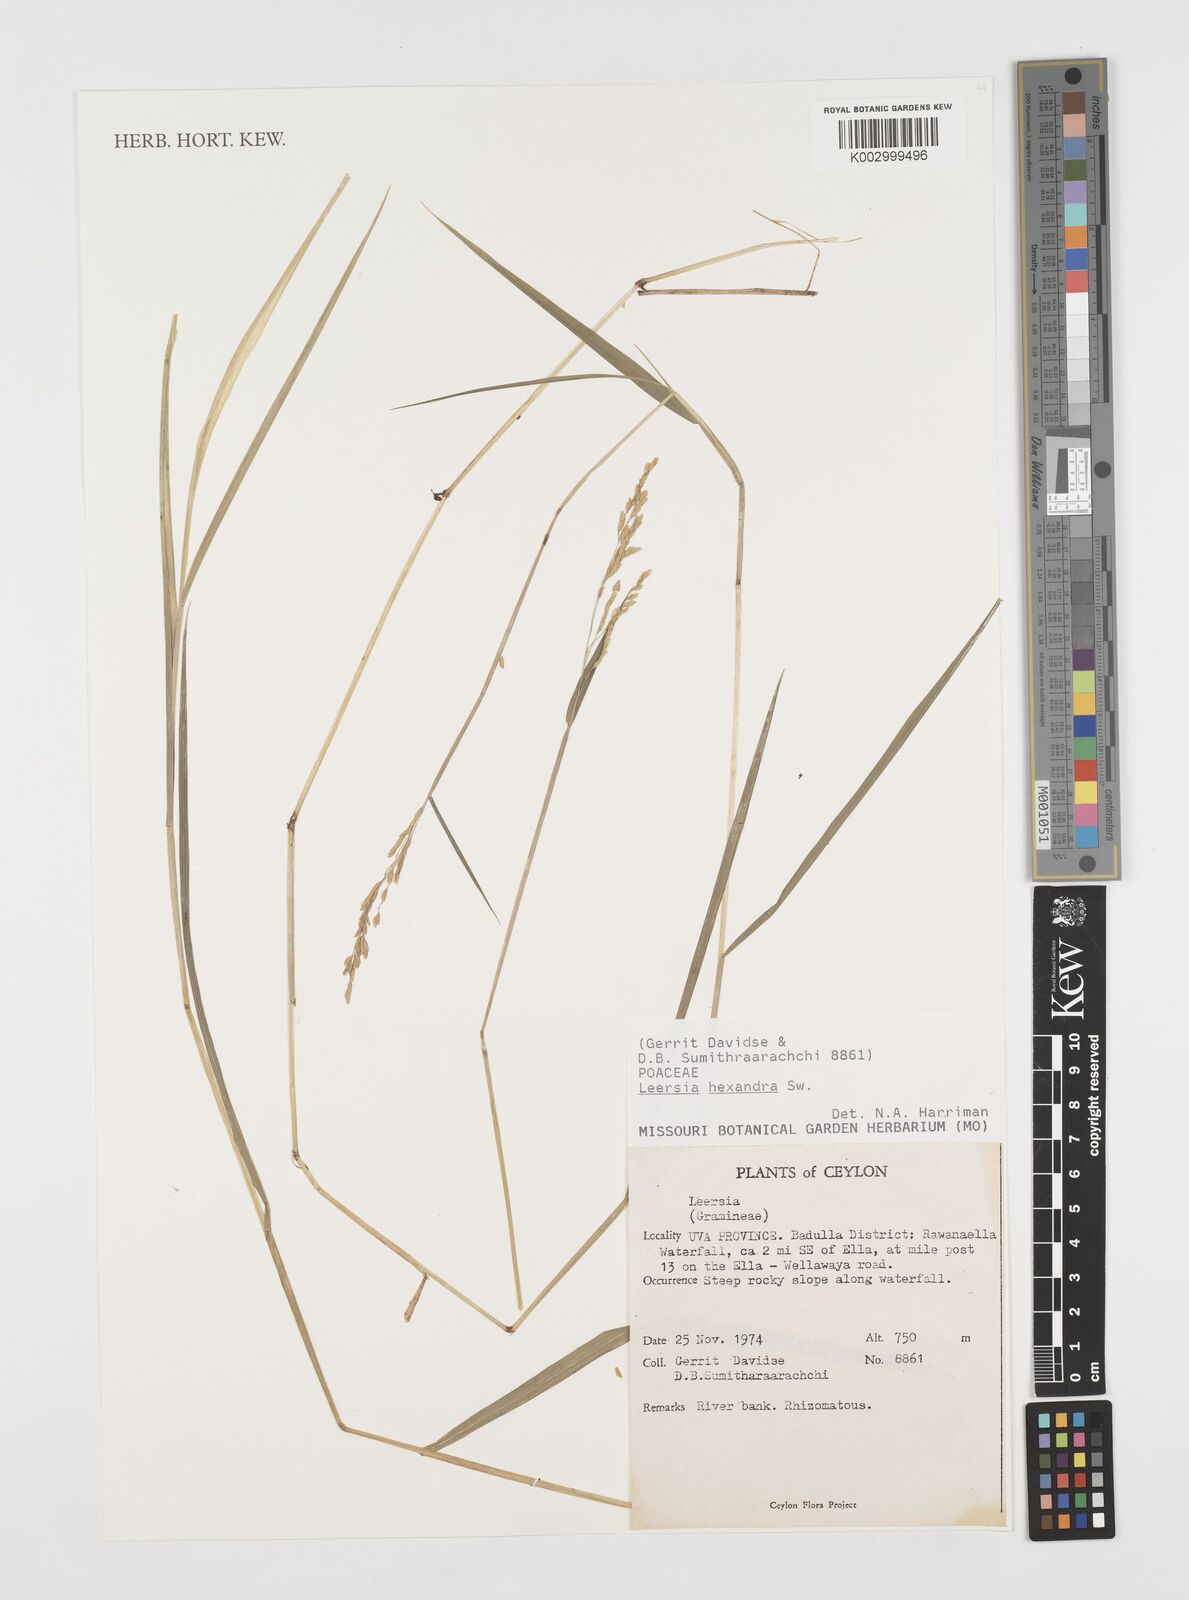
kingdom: Plantae
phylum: Tracheophyta
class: Liliopsida
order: Poales
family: Poaceae
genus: Leersia
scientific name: Leersia hexandra
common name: Southern cut grass
